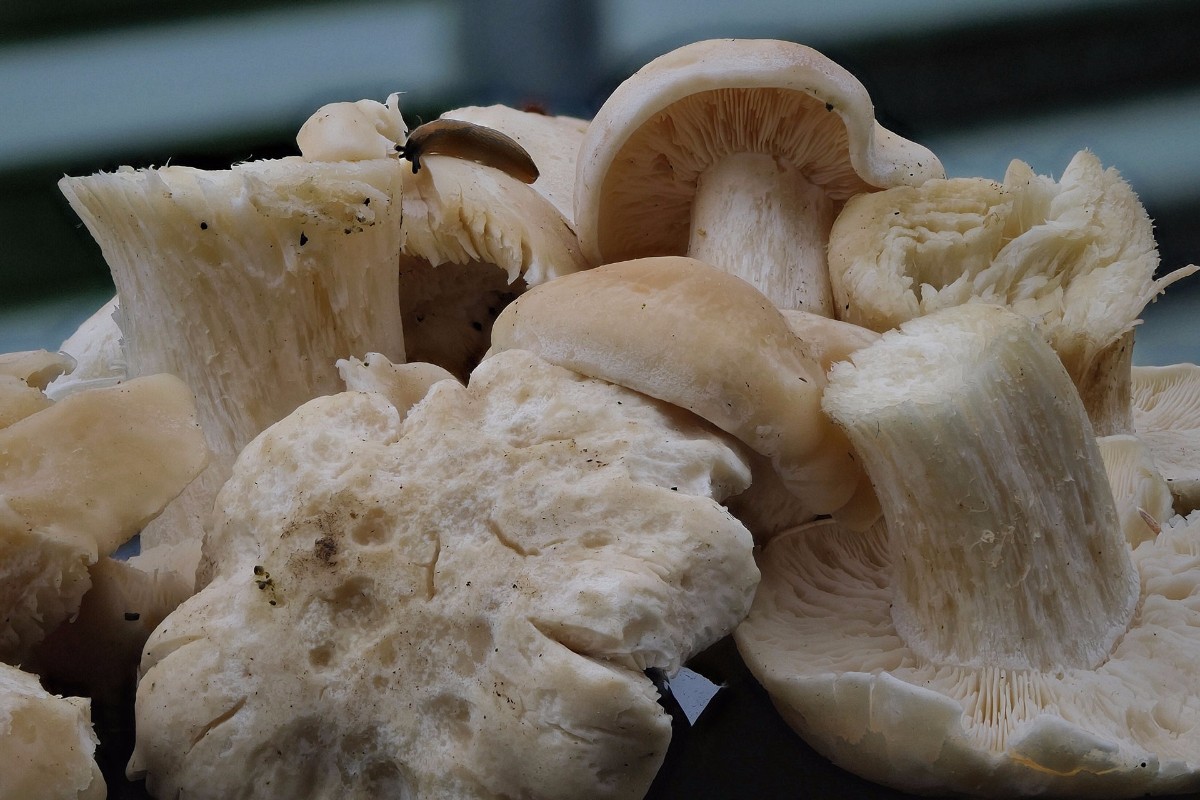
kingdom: Fungi
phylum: Basidiomycota
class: Agaricomycetes
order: Agaricales
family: Lyophyllaceae
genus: Calocybe
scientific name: Calocybe gambosa
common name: vårmusseron
